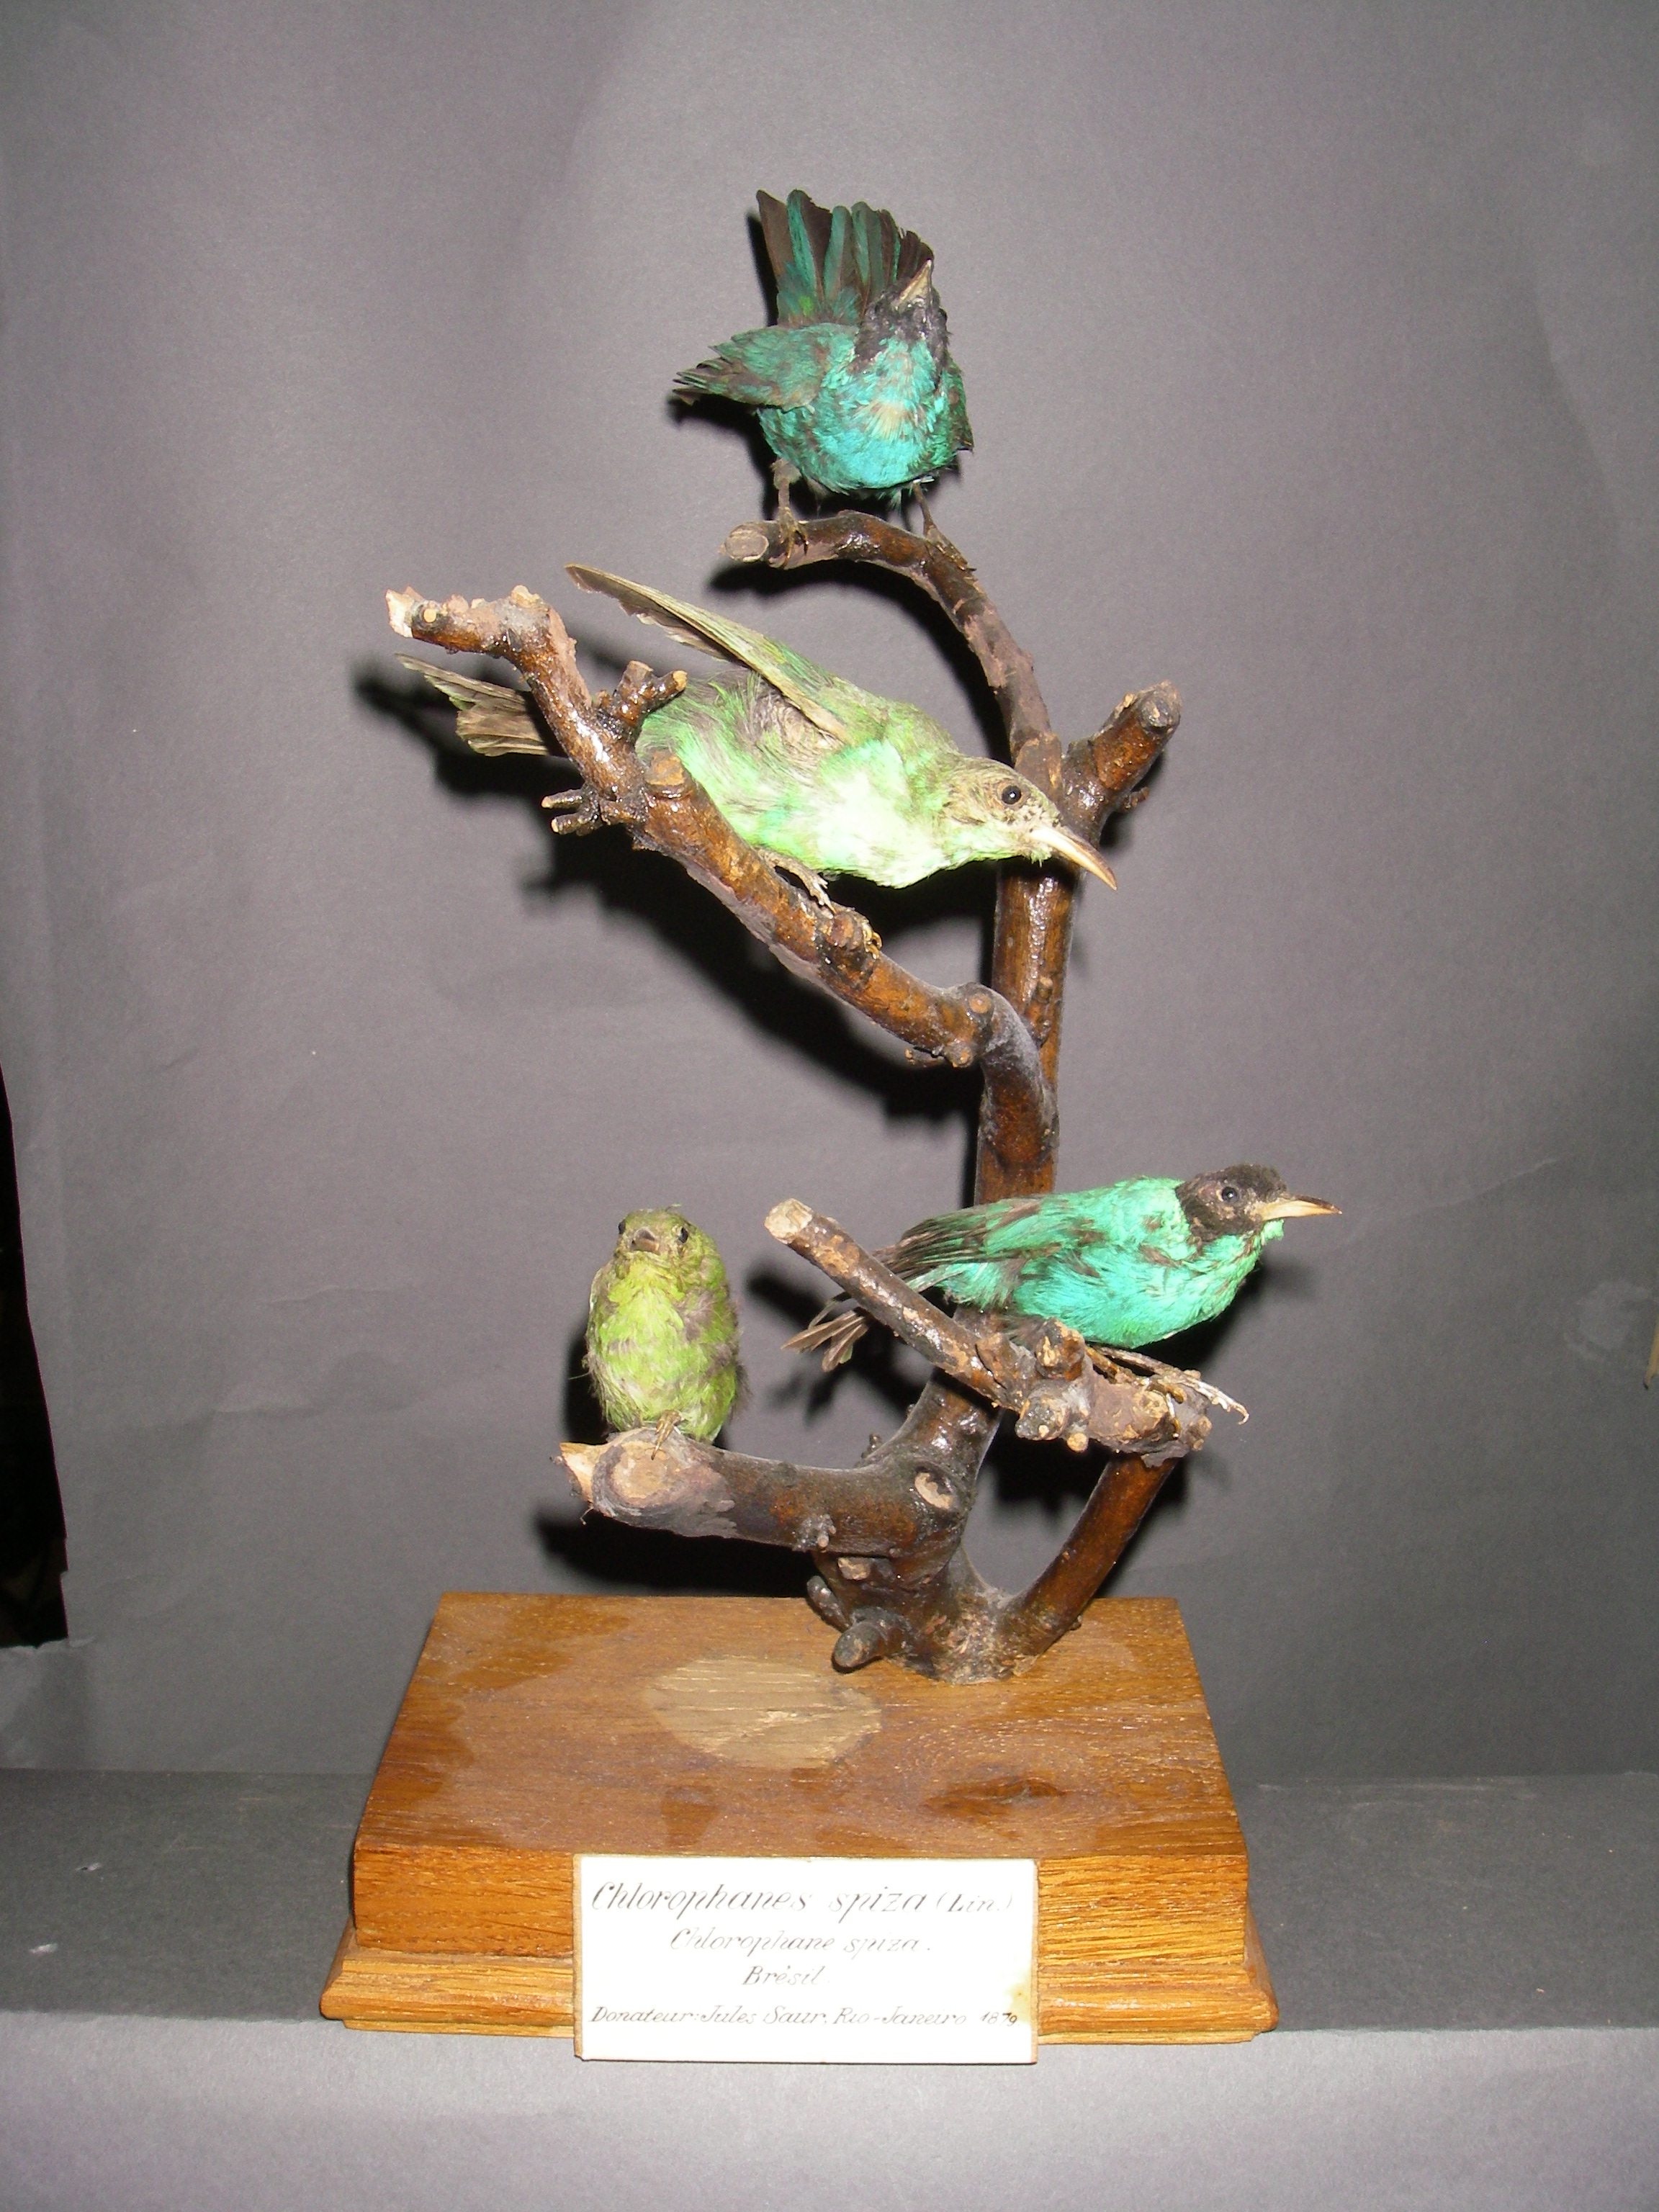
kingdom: Animalia
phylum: Chordata
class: Aves
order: Passeriformes
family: Thraupidae
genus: Chlorophanes
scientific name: Chlorophanes spiza
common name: Green honeycreeper
